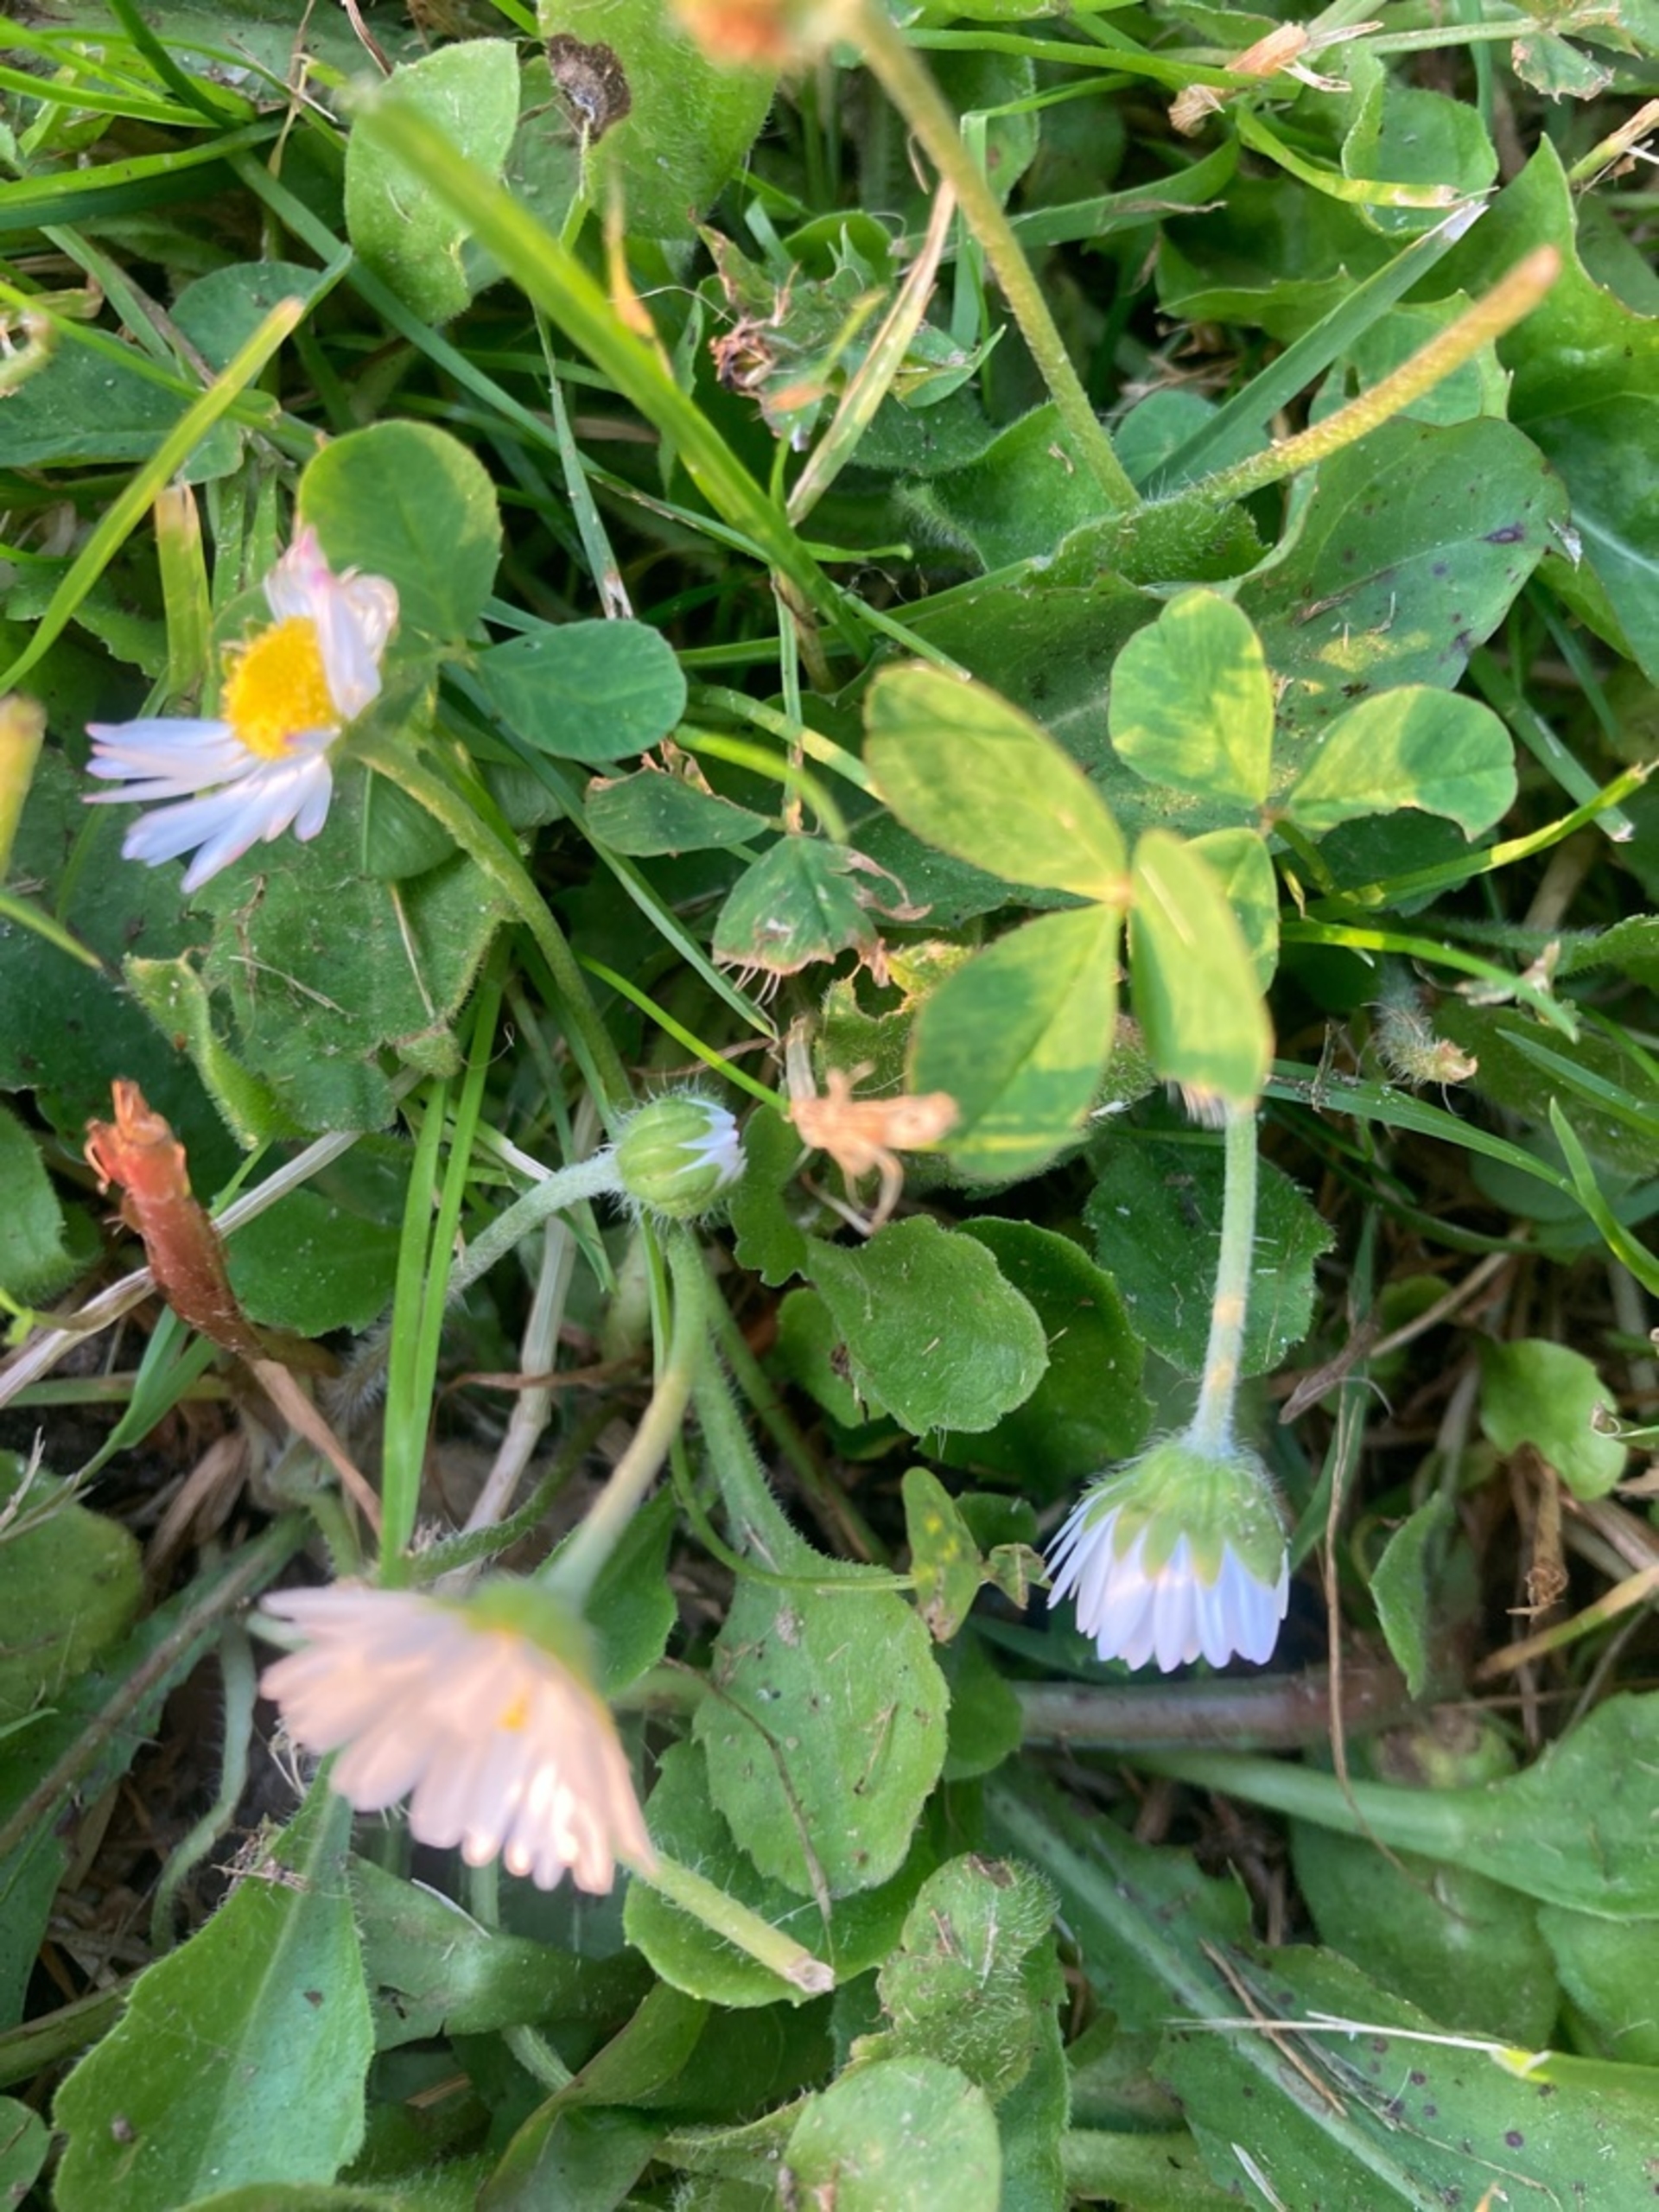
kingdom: Plantae
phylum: Tracheophyta
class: Magnoliopsida
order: Asterales
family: Asteraceae
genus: Bellis
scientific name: Bellis
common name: Tusindfrydslægten
